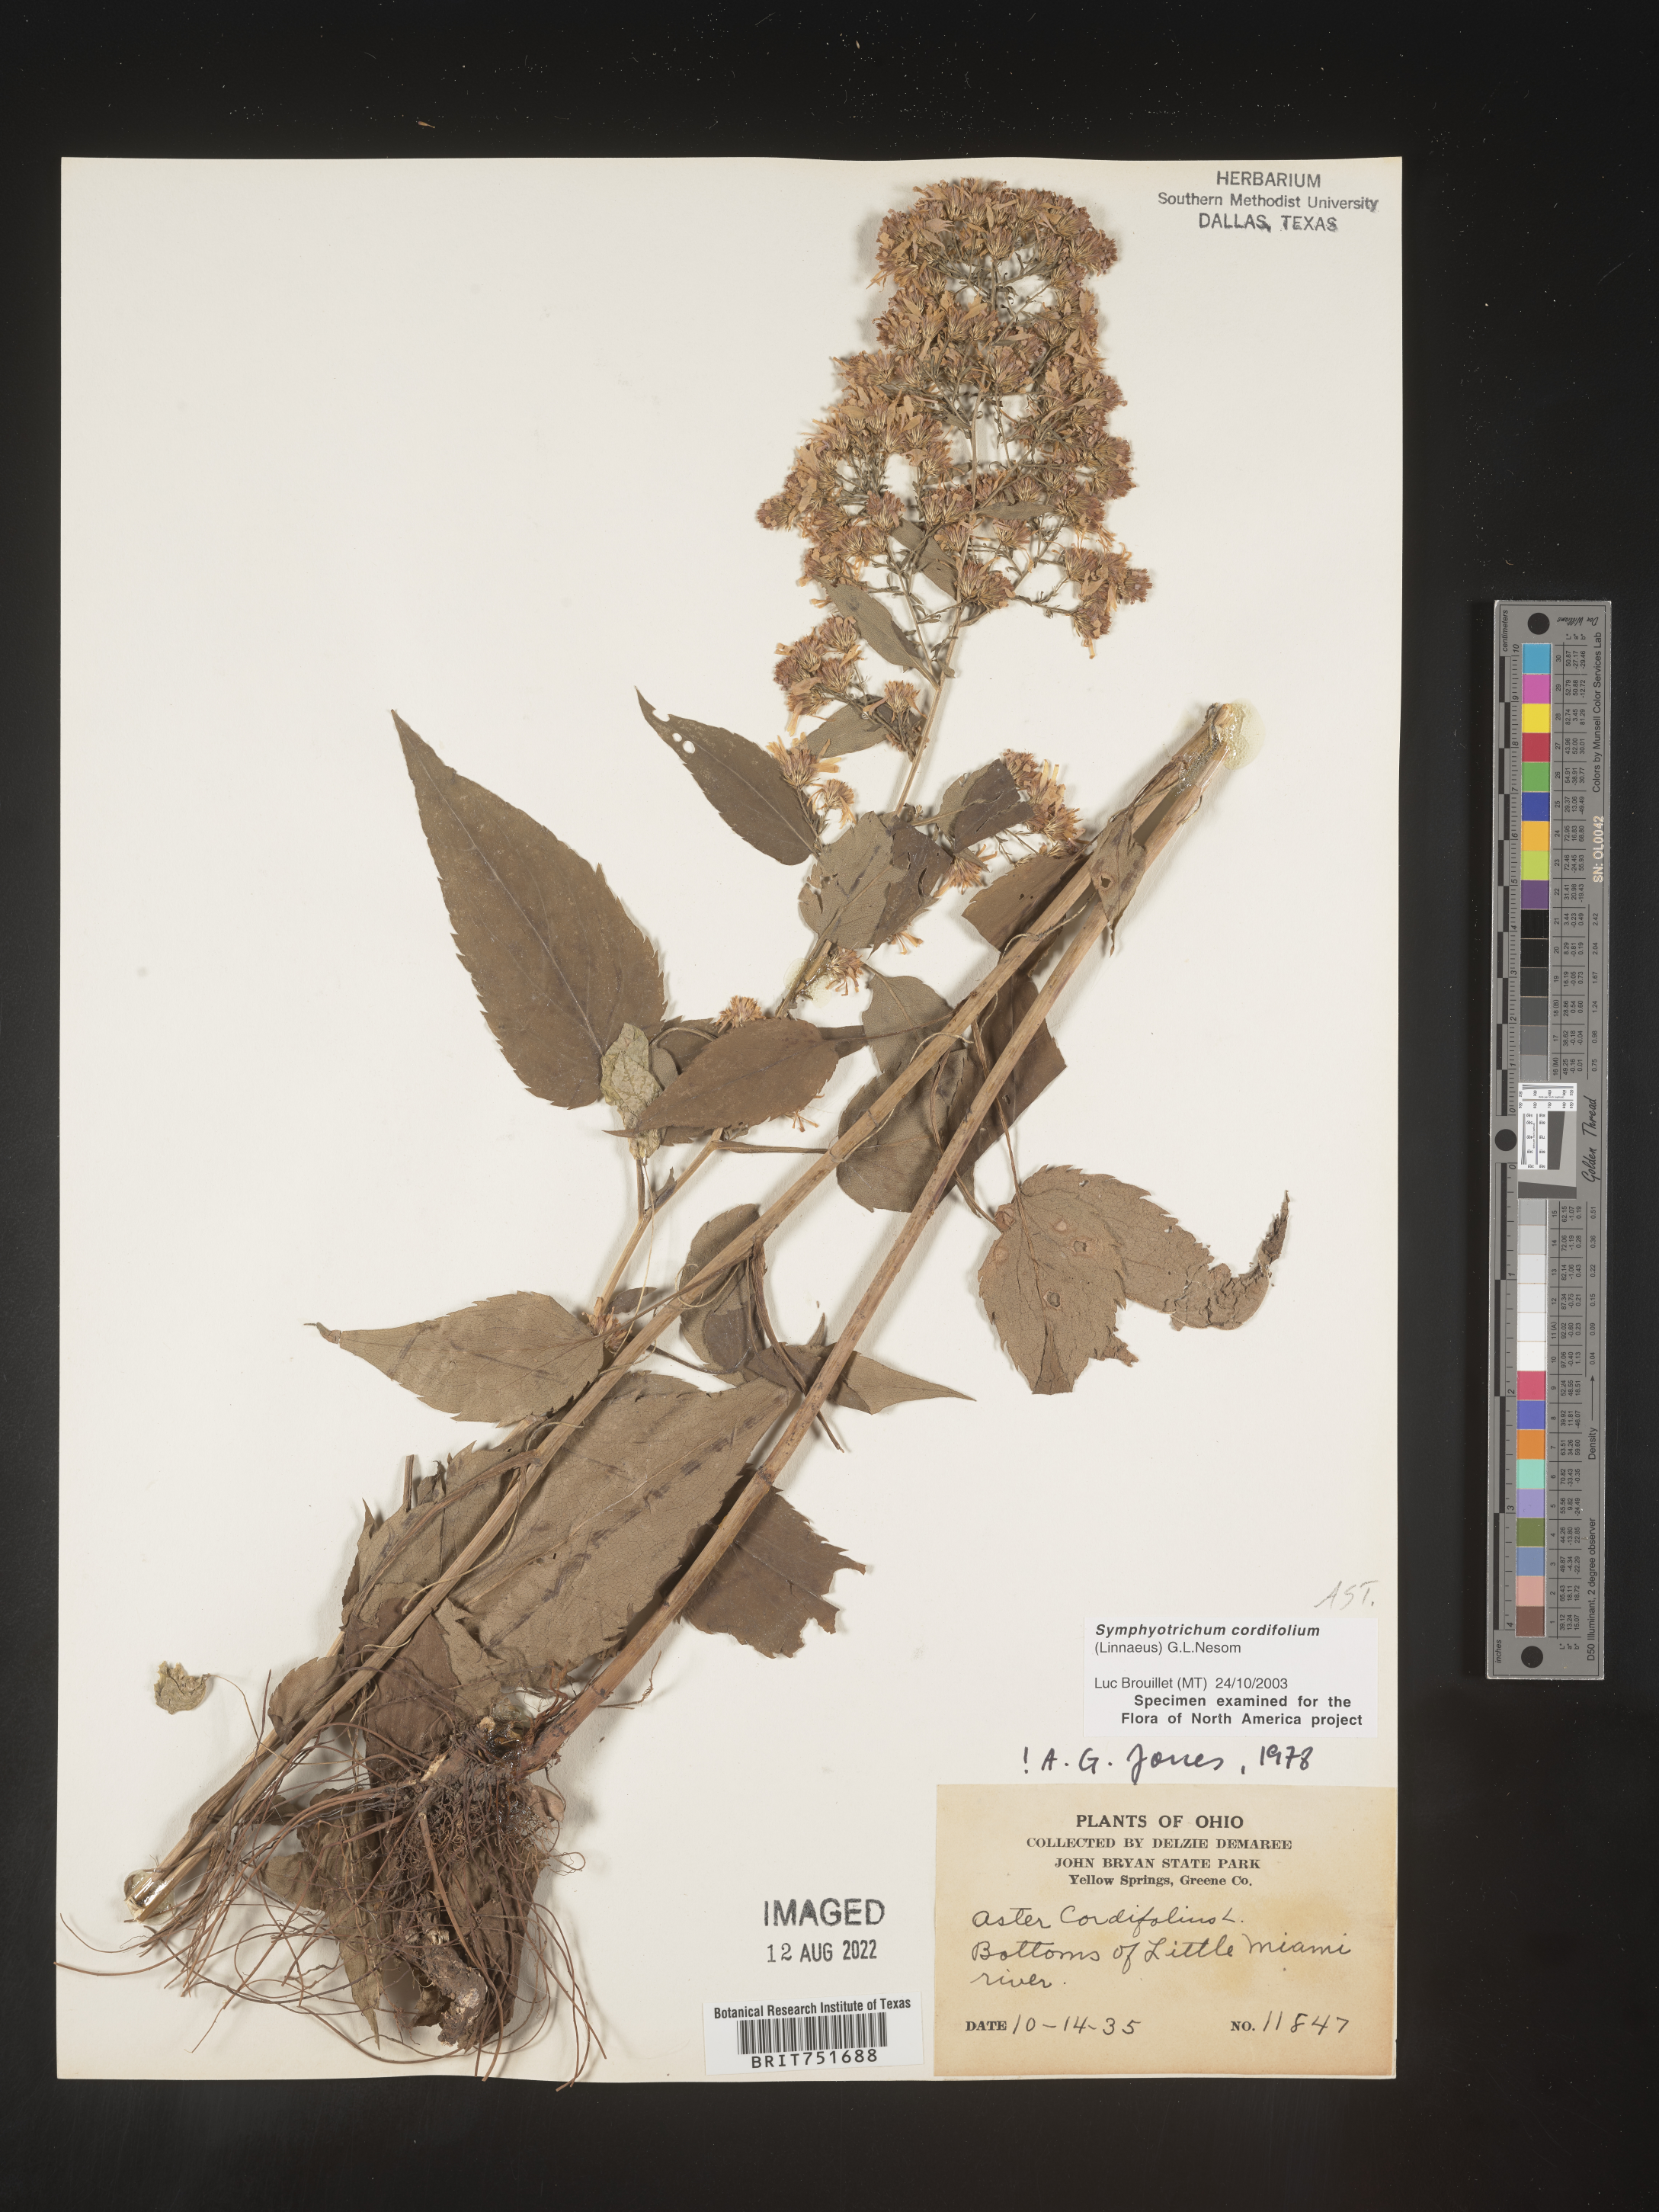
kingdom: Plantae
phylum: Tracheophyta
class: Magnoliopsida
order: Asterales
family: Asteraceae
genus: Symphyotrichum
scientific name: Symphyotrichum cordifolium
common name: Beeweed
